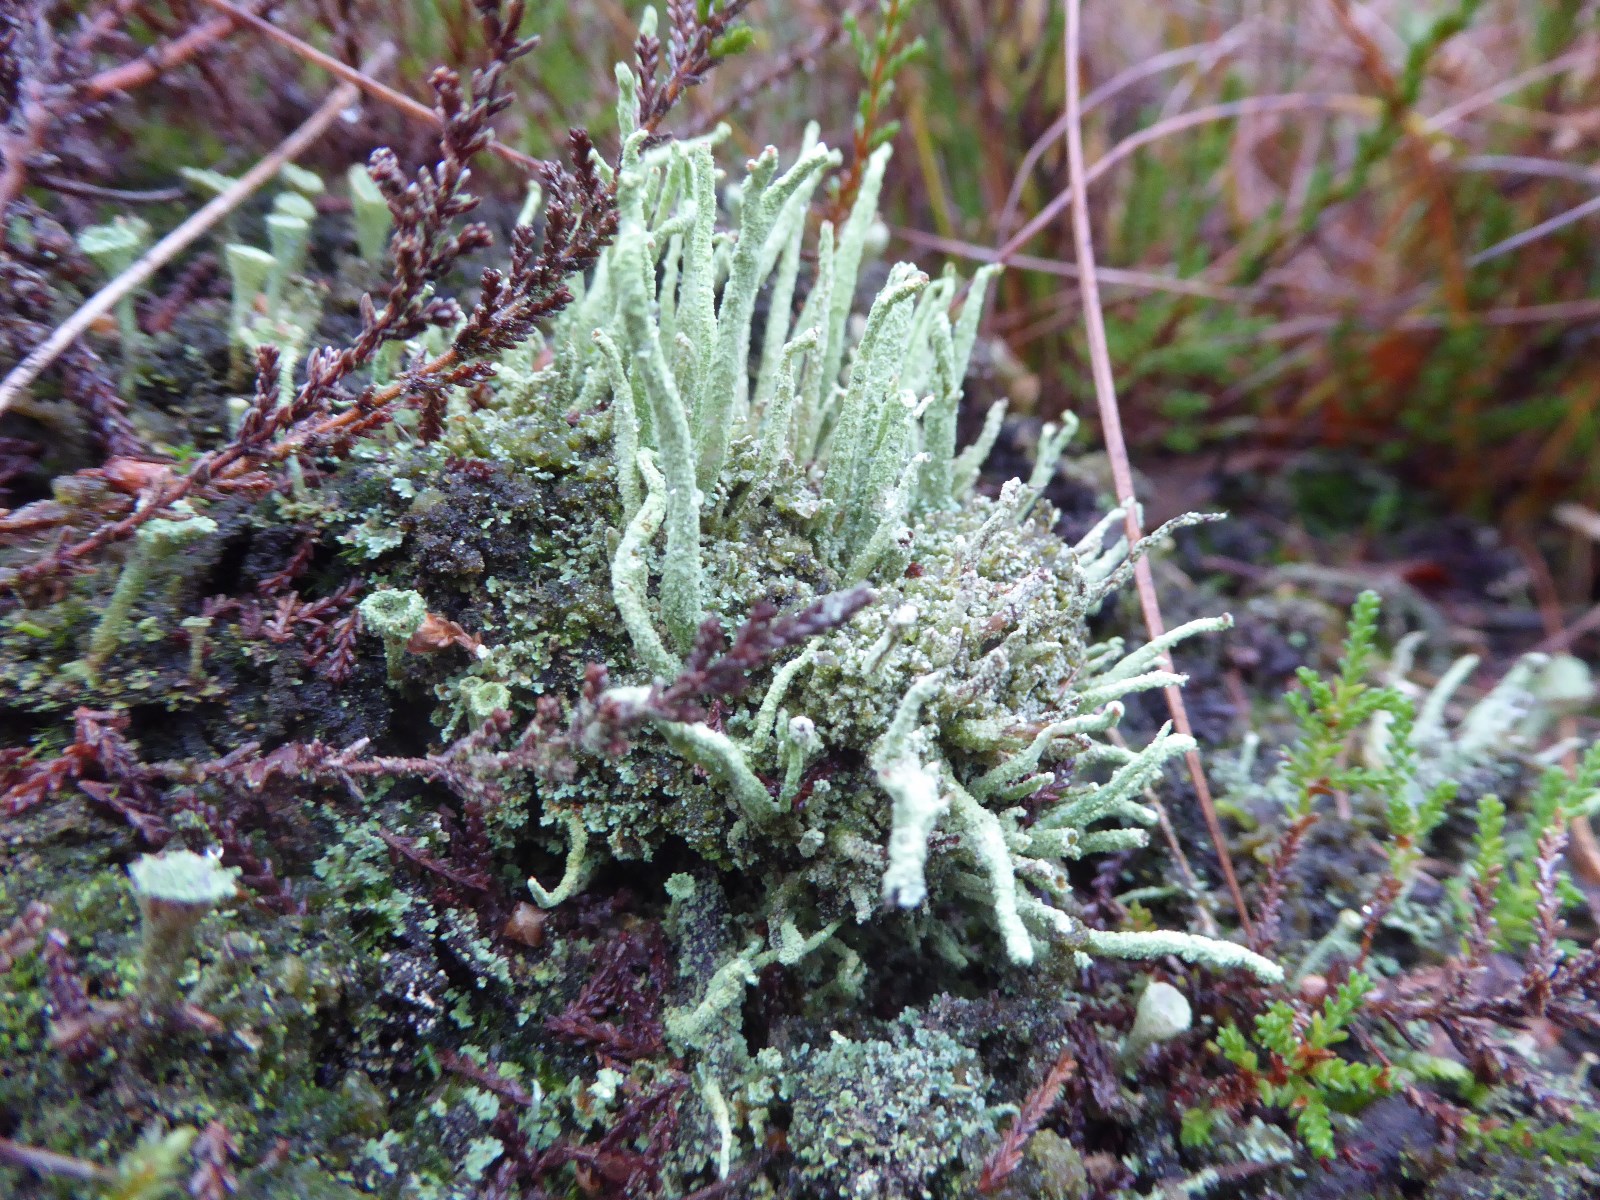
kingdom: Fungi
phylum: Ascomycota
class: Lecanoromycetes
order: Lecanorales
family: Cladoniaceae
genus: Cladonia
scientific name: Cladonia macilenta
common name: indsvunden bægerlav
